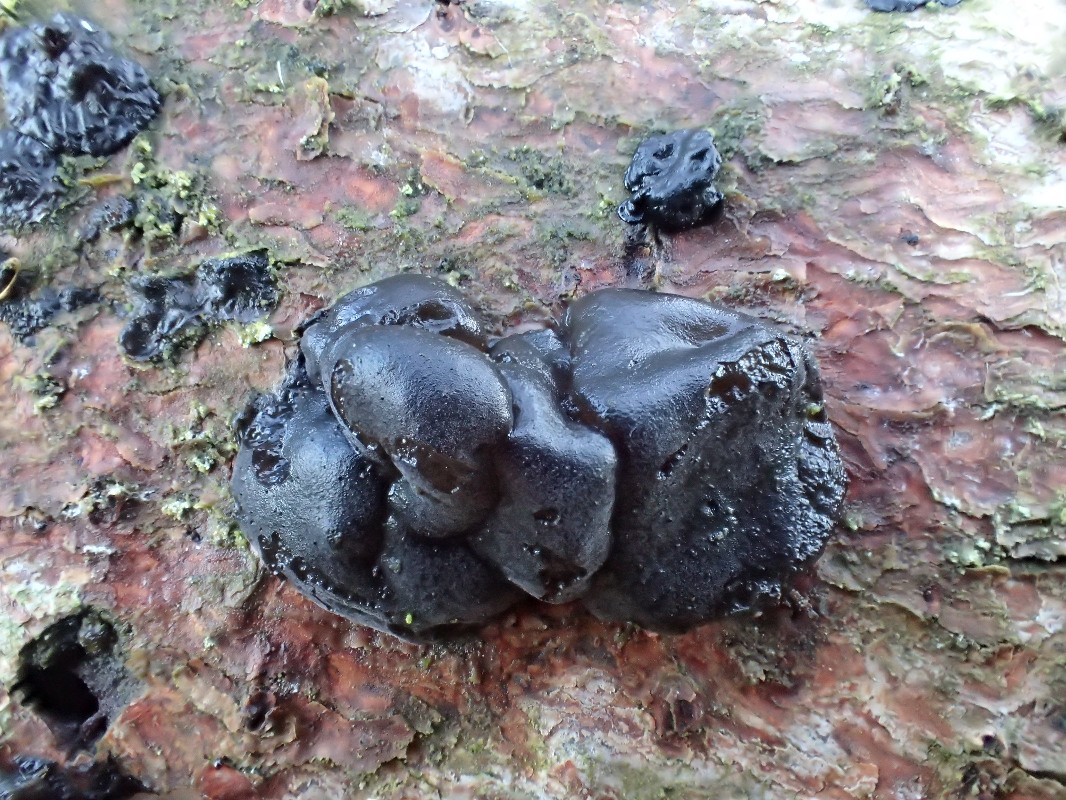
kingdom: Fungi
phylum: Basidiomycota
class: Agaricomycetes
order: Auriculariales
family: Auriculariaceae
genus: Exidia
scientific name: Exidia pithya
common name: gran-bævretop
